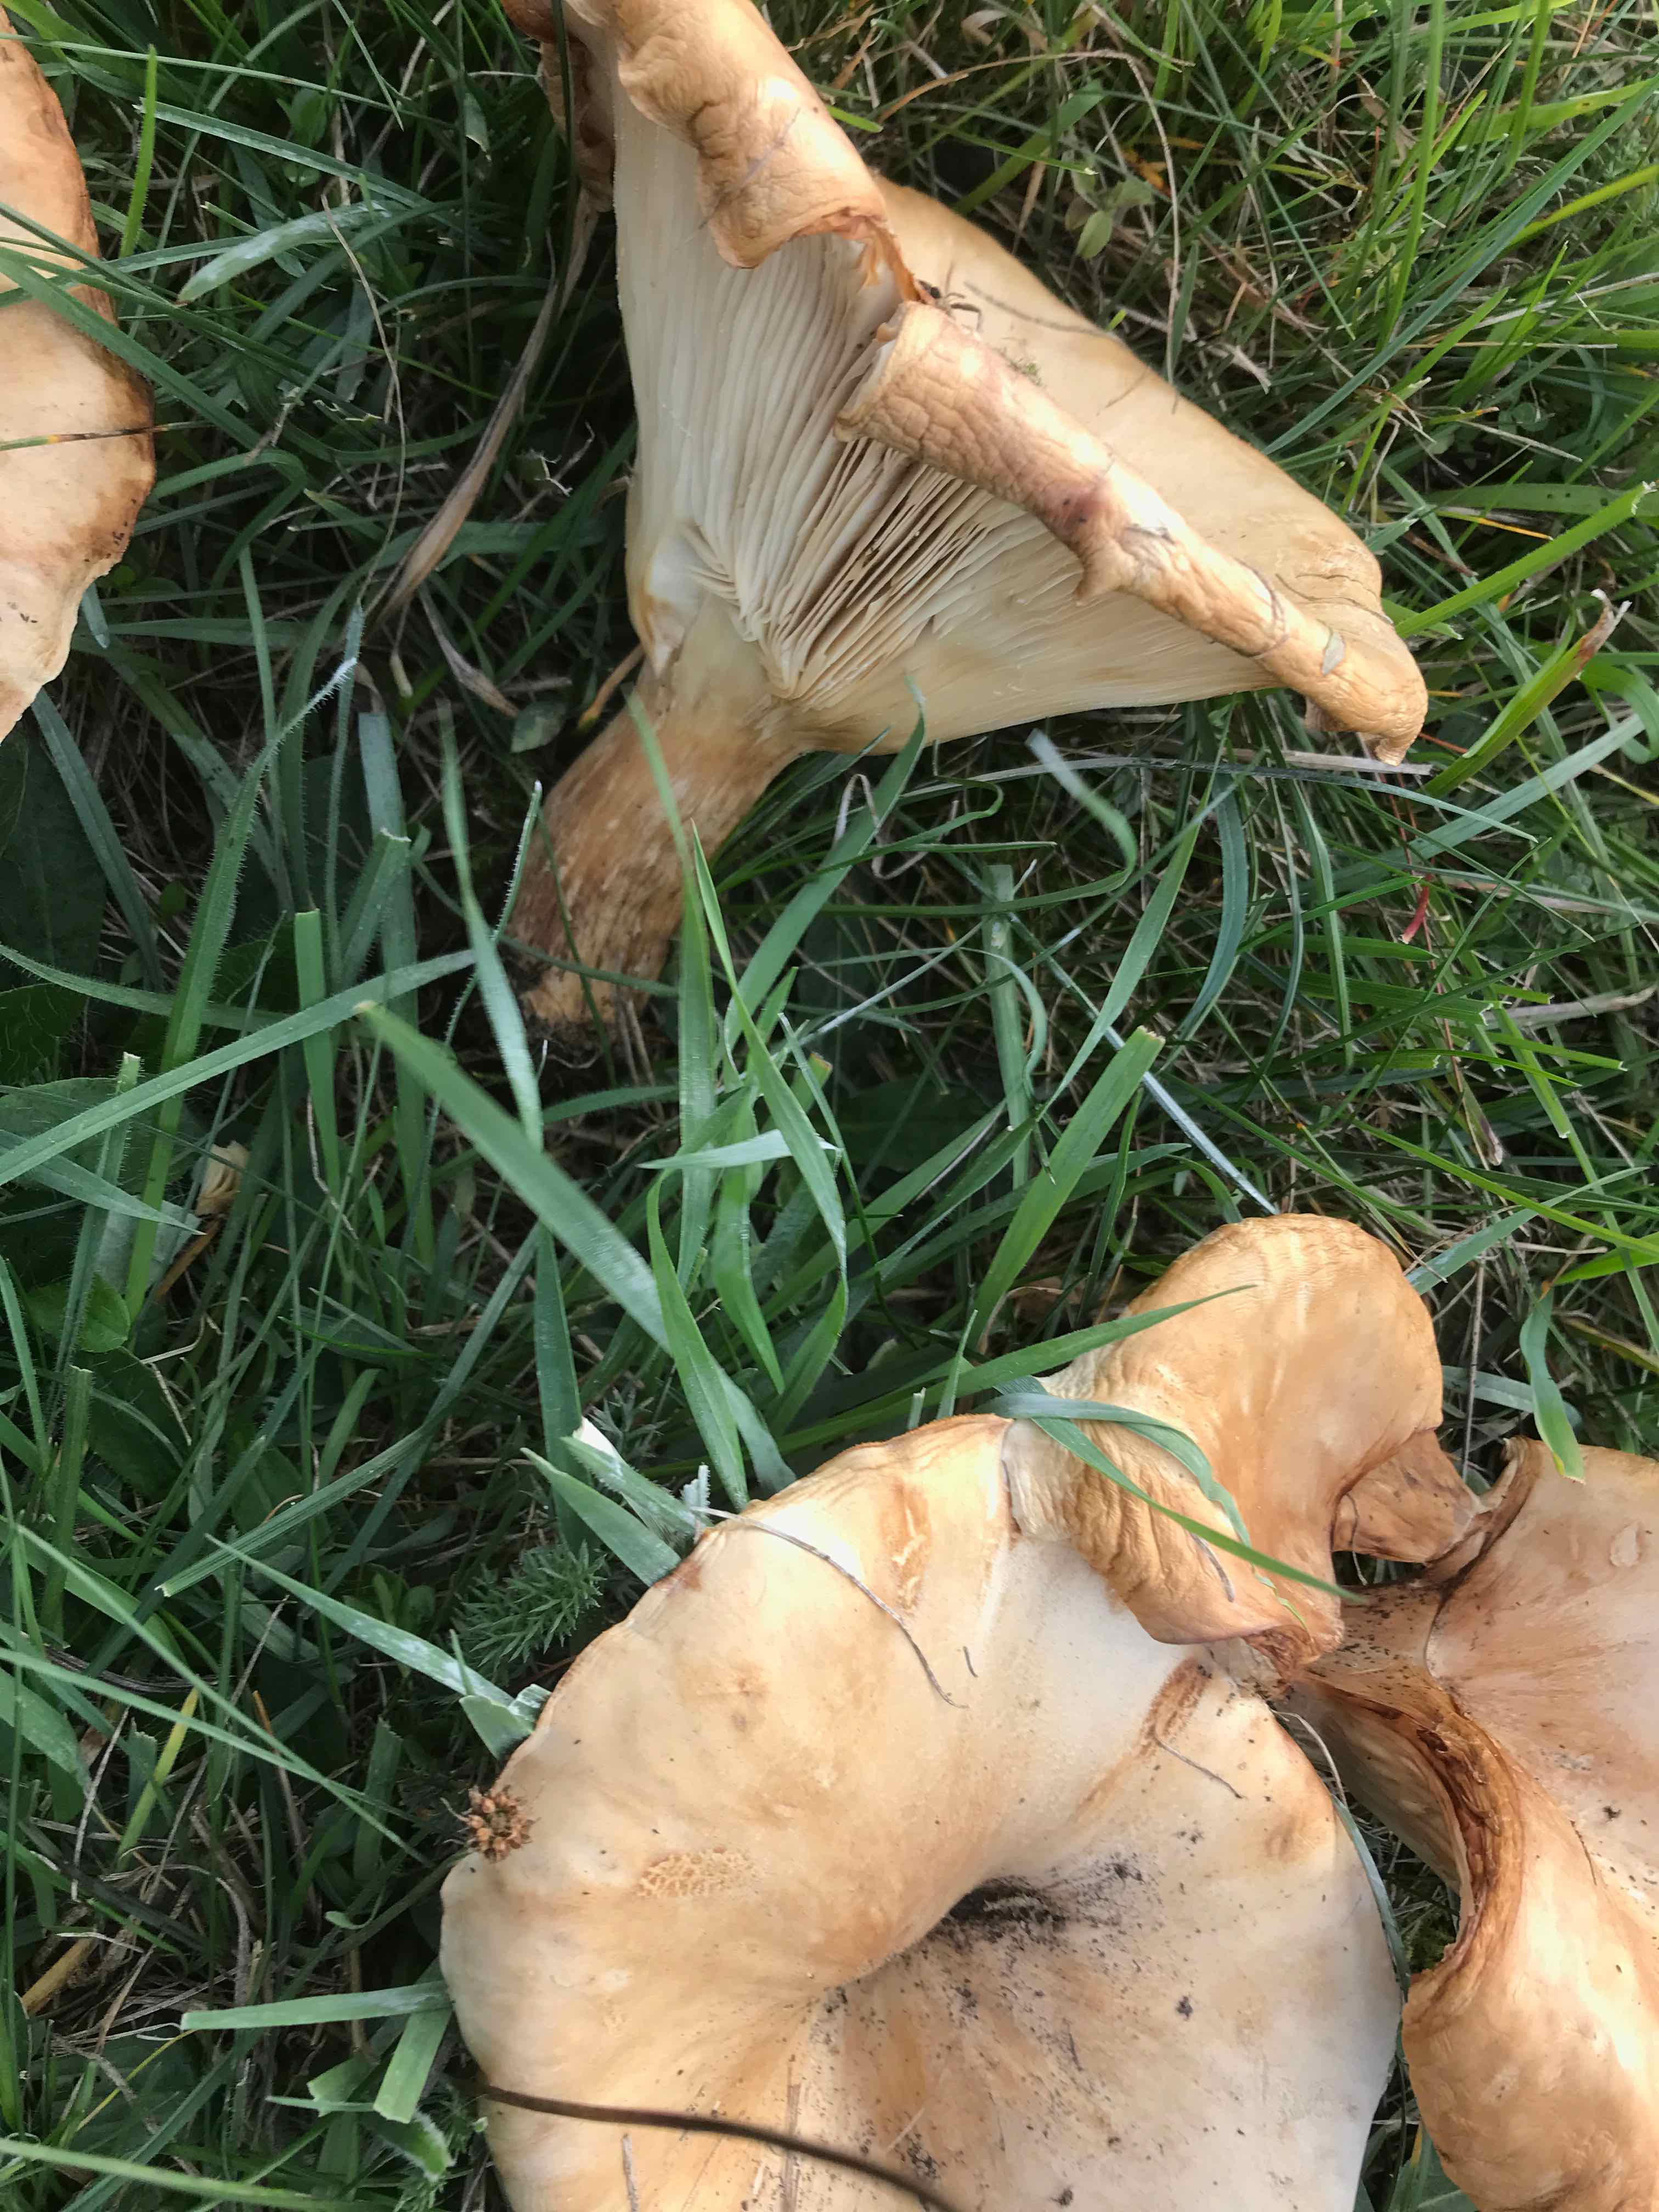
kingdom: Fungi
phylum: Basidiomycota
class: Agaricomycetes
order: Agaricales
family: Tricholomataceae
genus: Infundibulicybe
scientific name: Infundibulicybe geotropa
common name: stor tragthat
